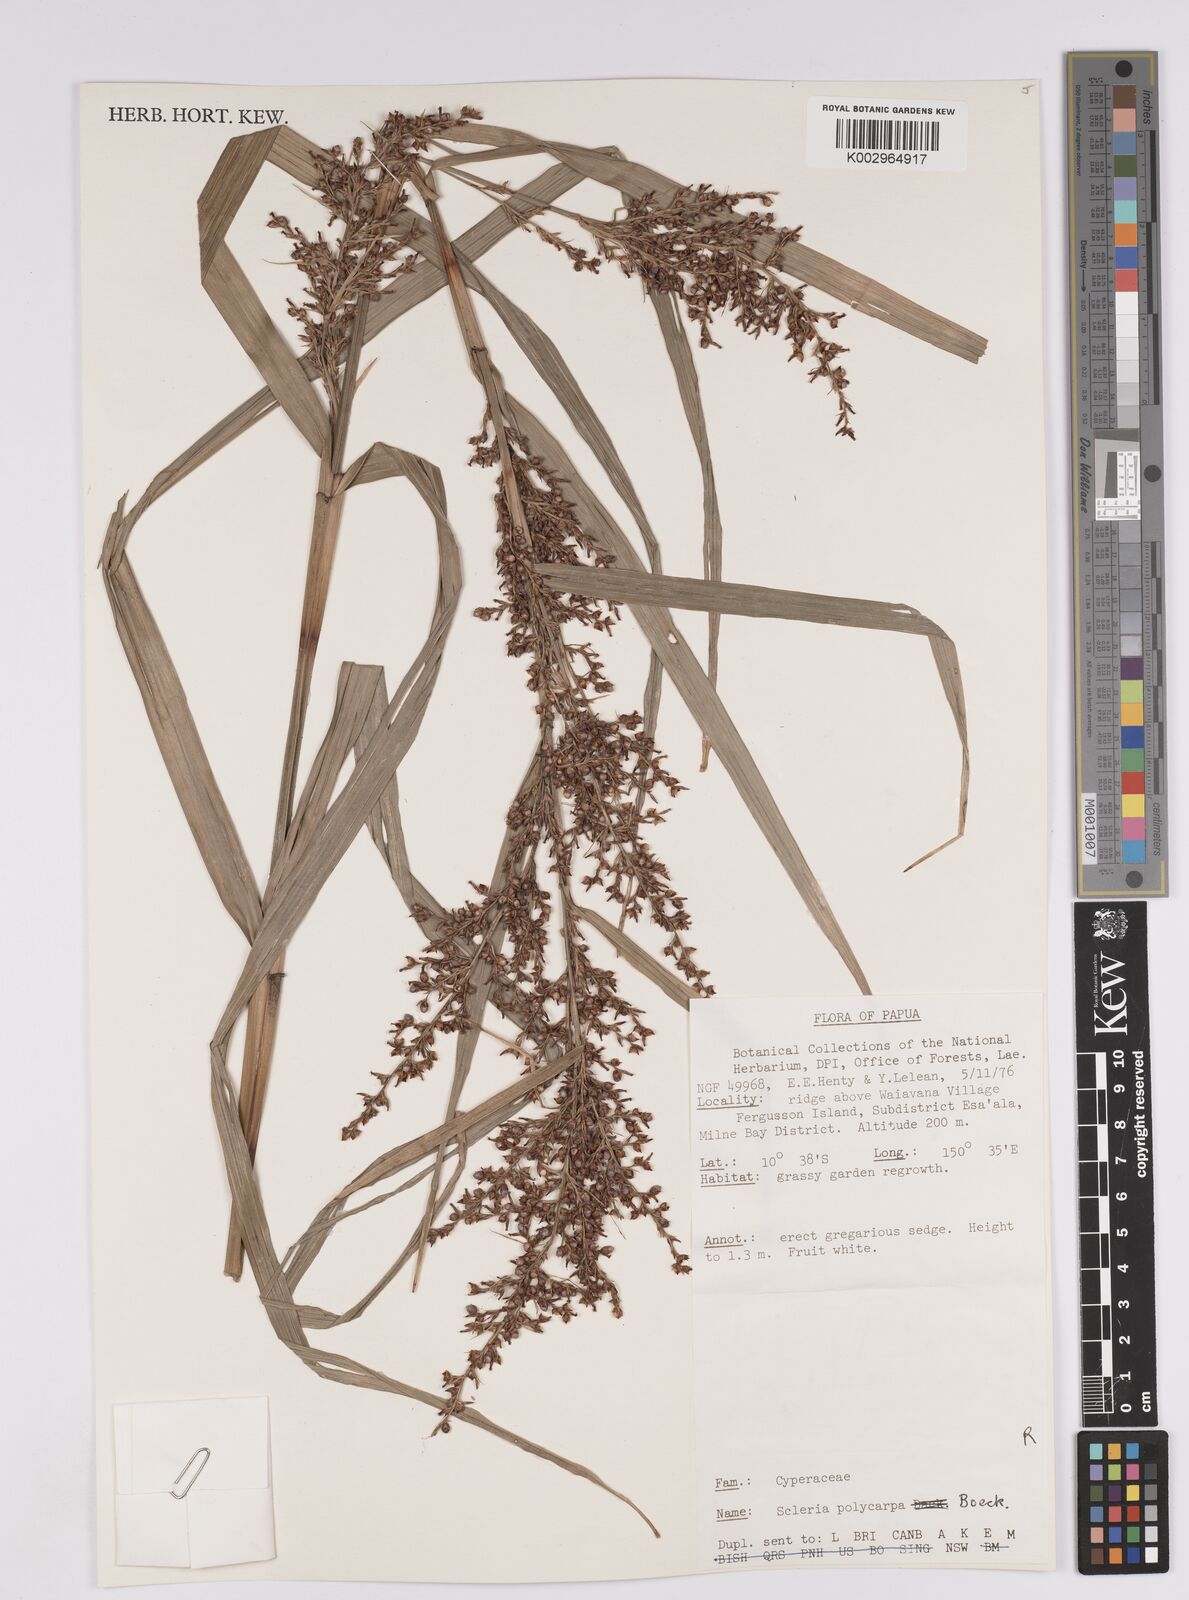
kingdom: Plantae
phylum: Tracheophyta
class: Liliopsida
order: Poales
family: Cyperaceae
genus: Scleria
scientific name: Scleria polycarpa
